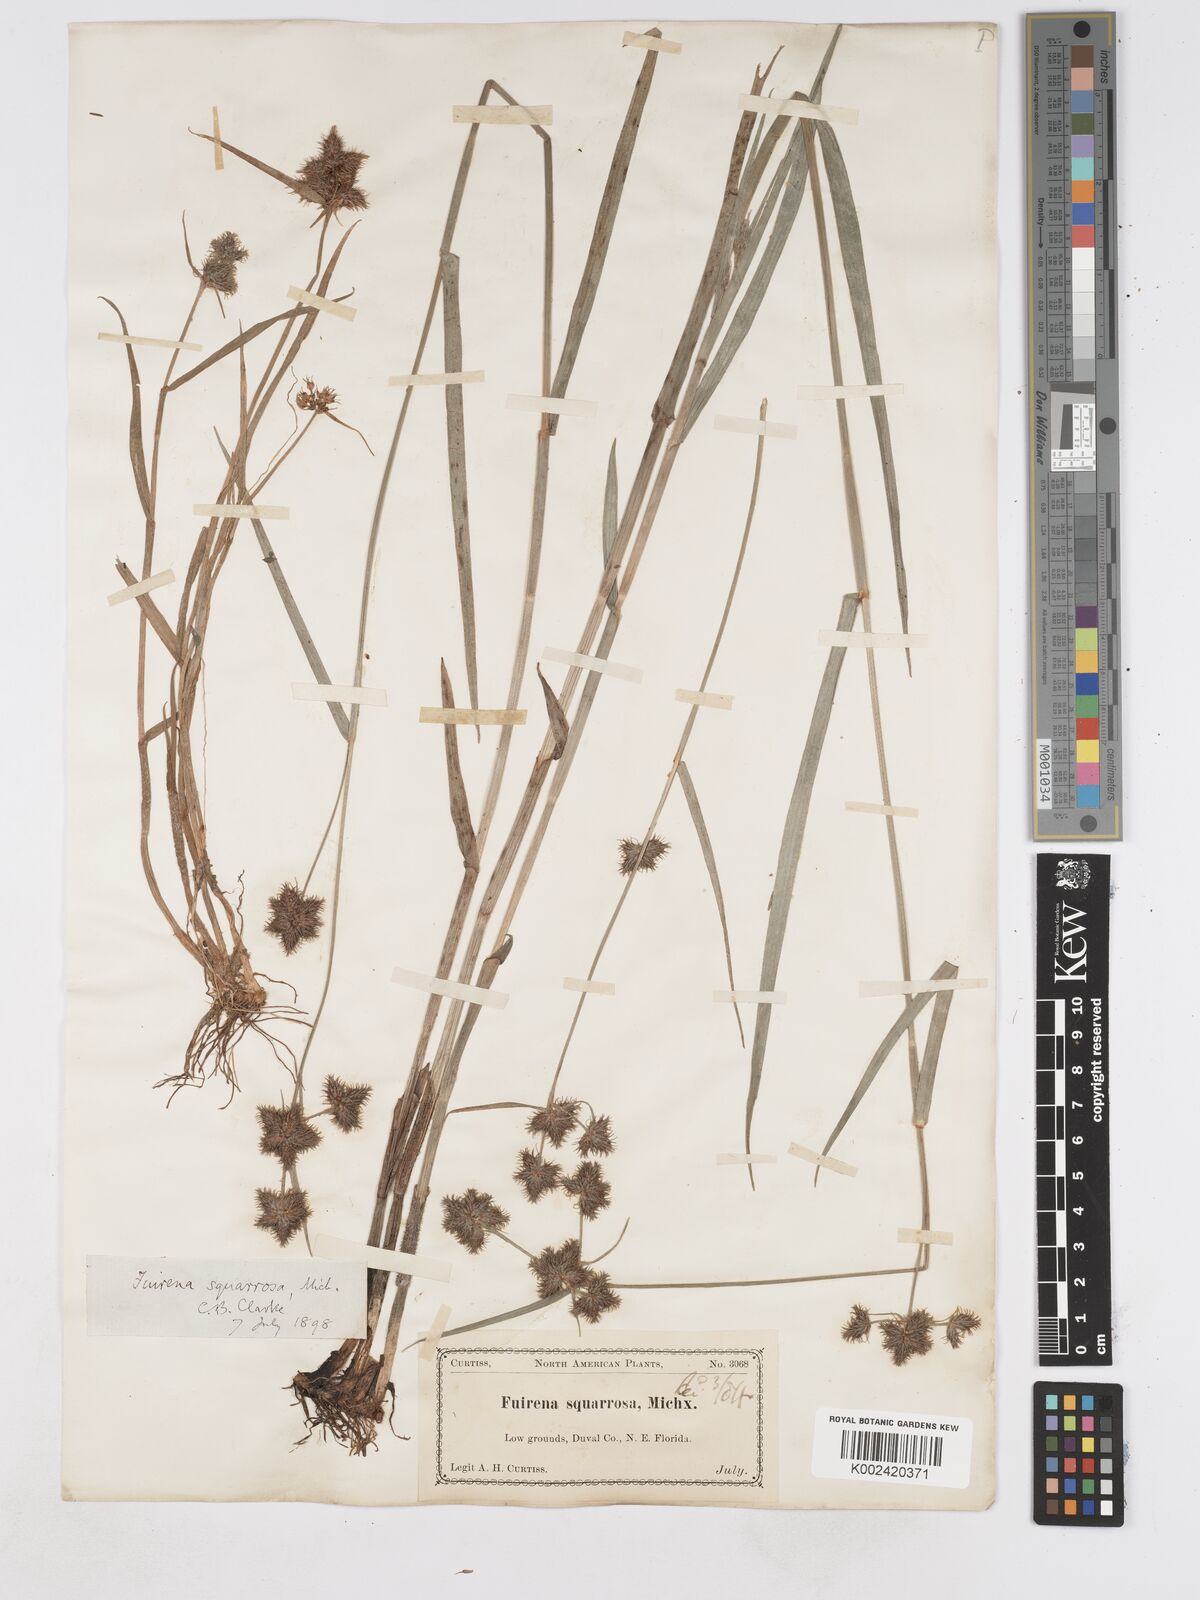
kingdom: Plantae
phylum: Tracheophyta
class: Liliopsida
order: Poales
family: Cyperaceae
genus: Fuirena
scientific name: Fuirena squarrosa
